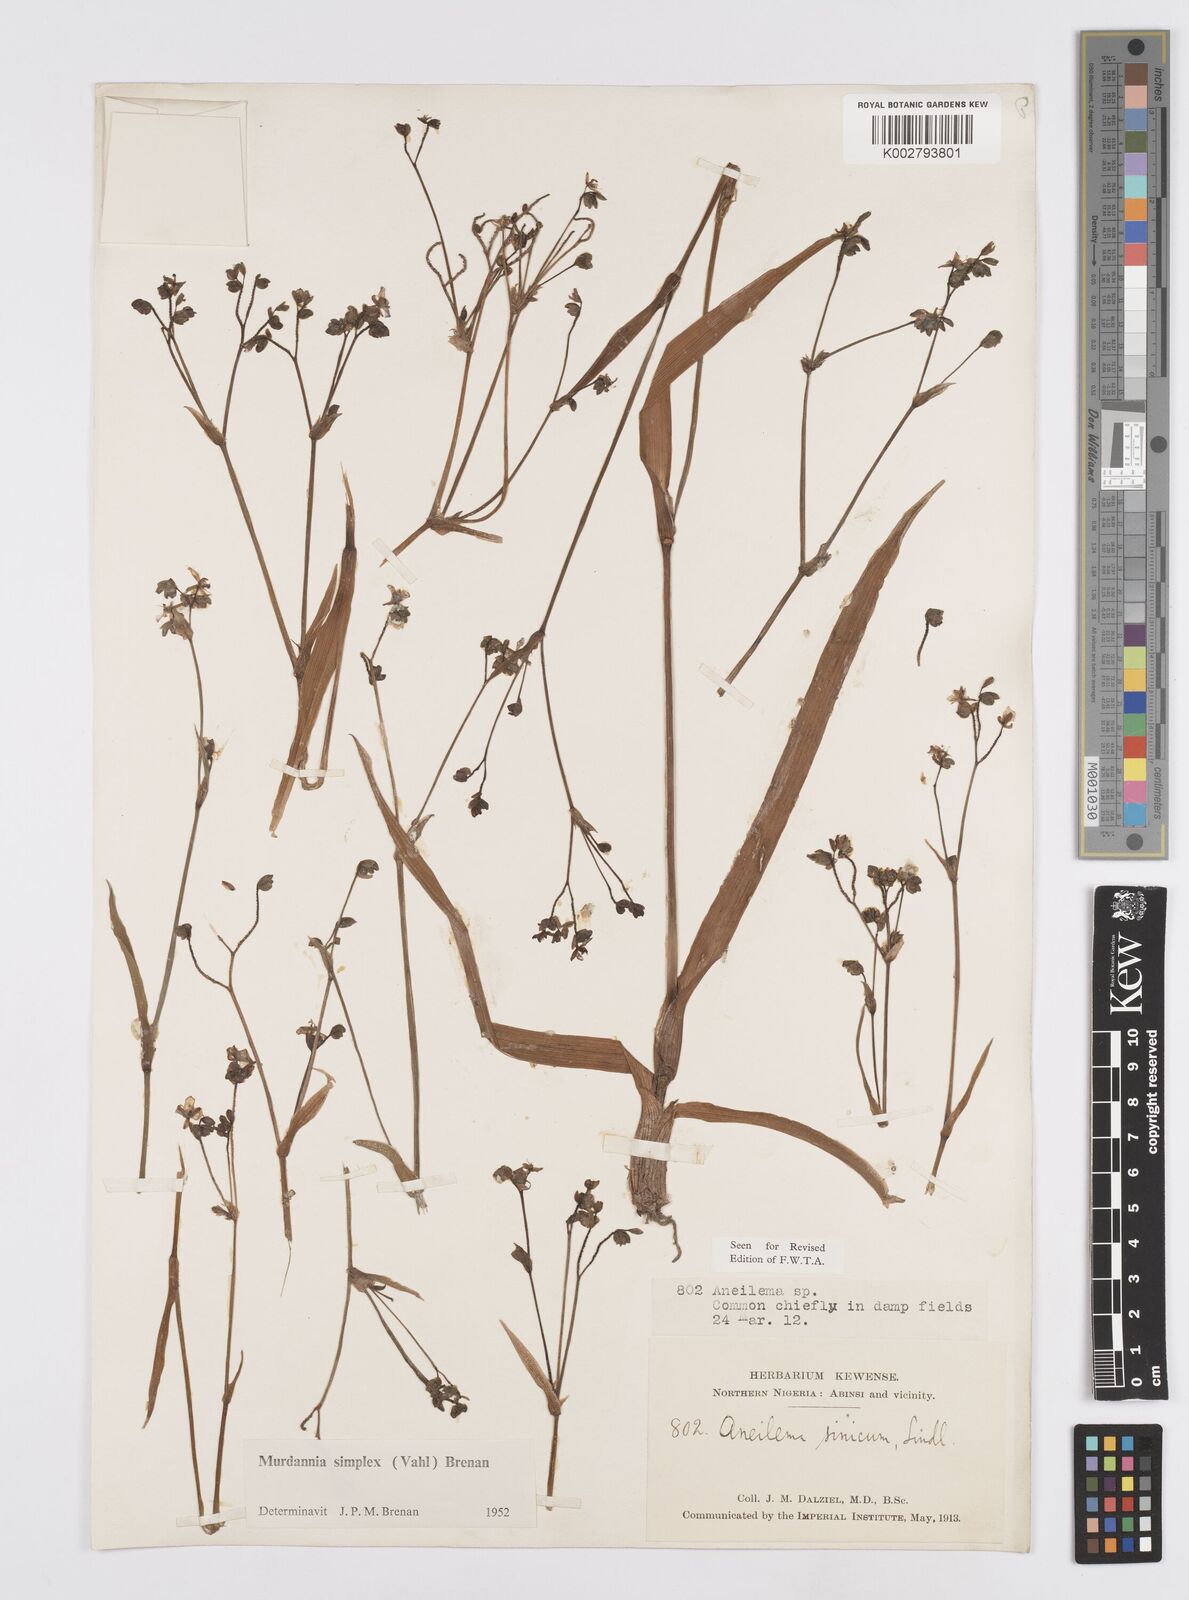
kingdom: Plantae
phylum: Tracheophyta
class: Liliopsida
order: Commelinales
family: Commelinaceae
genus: Murdannia
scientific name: Murdannia simplex
